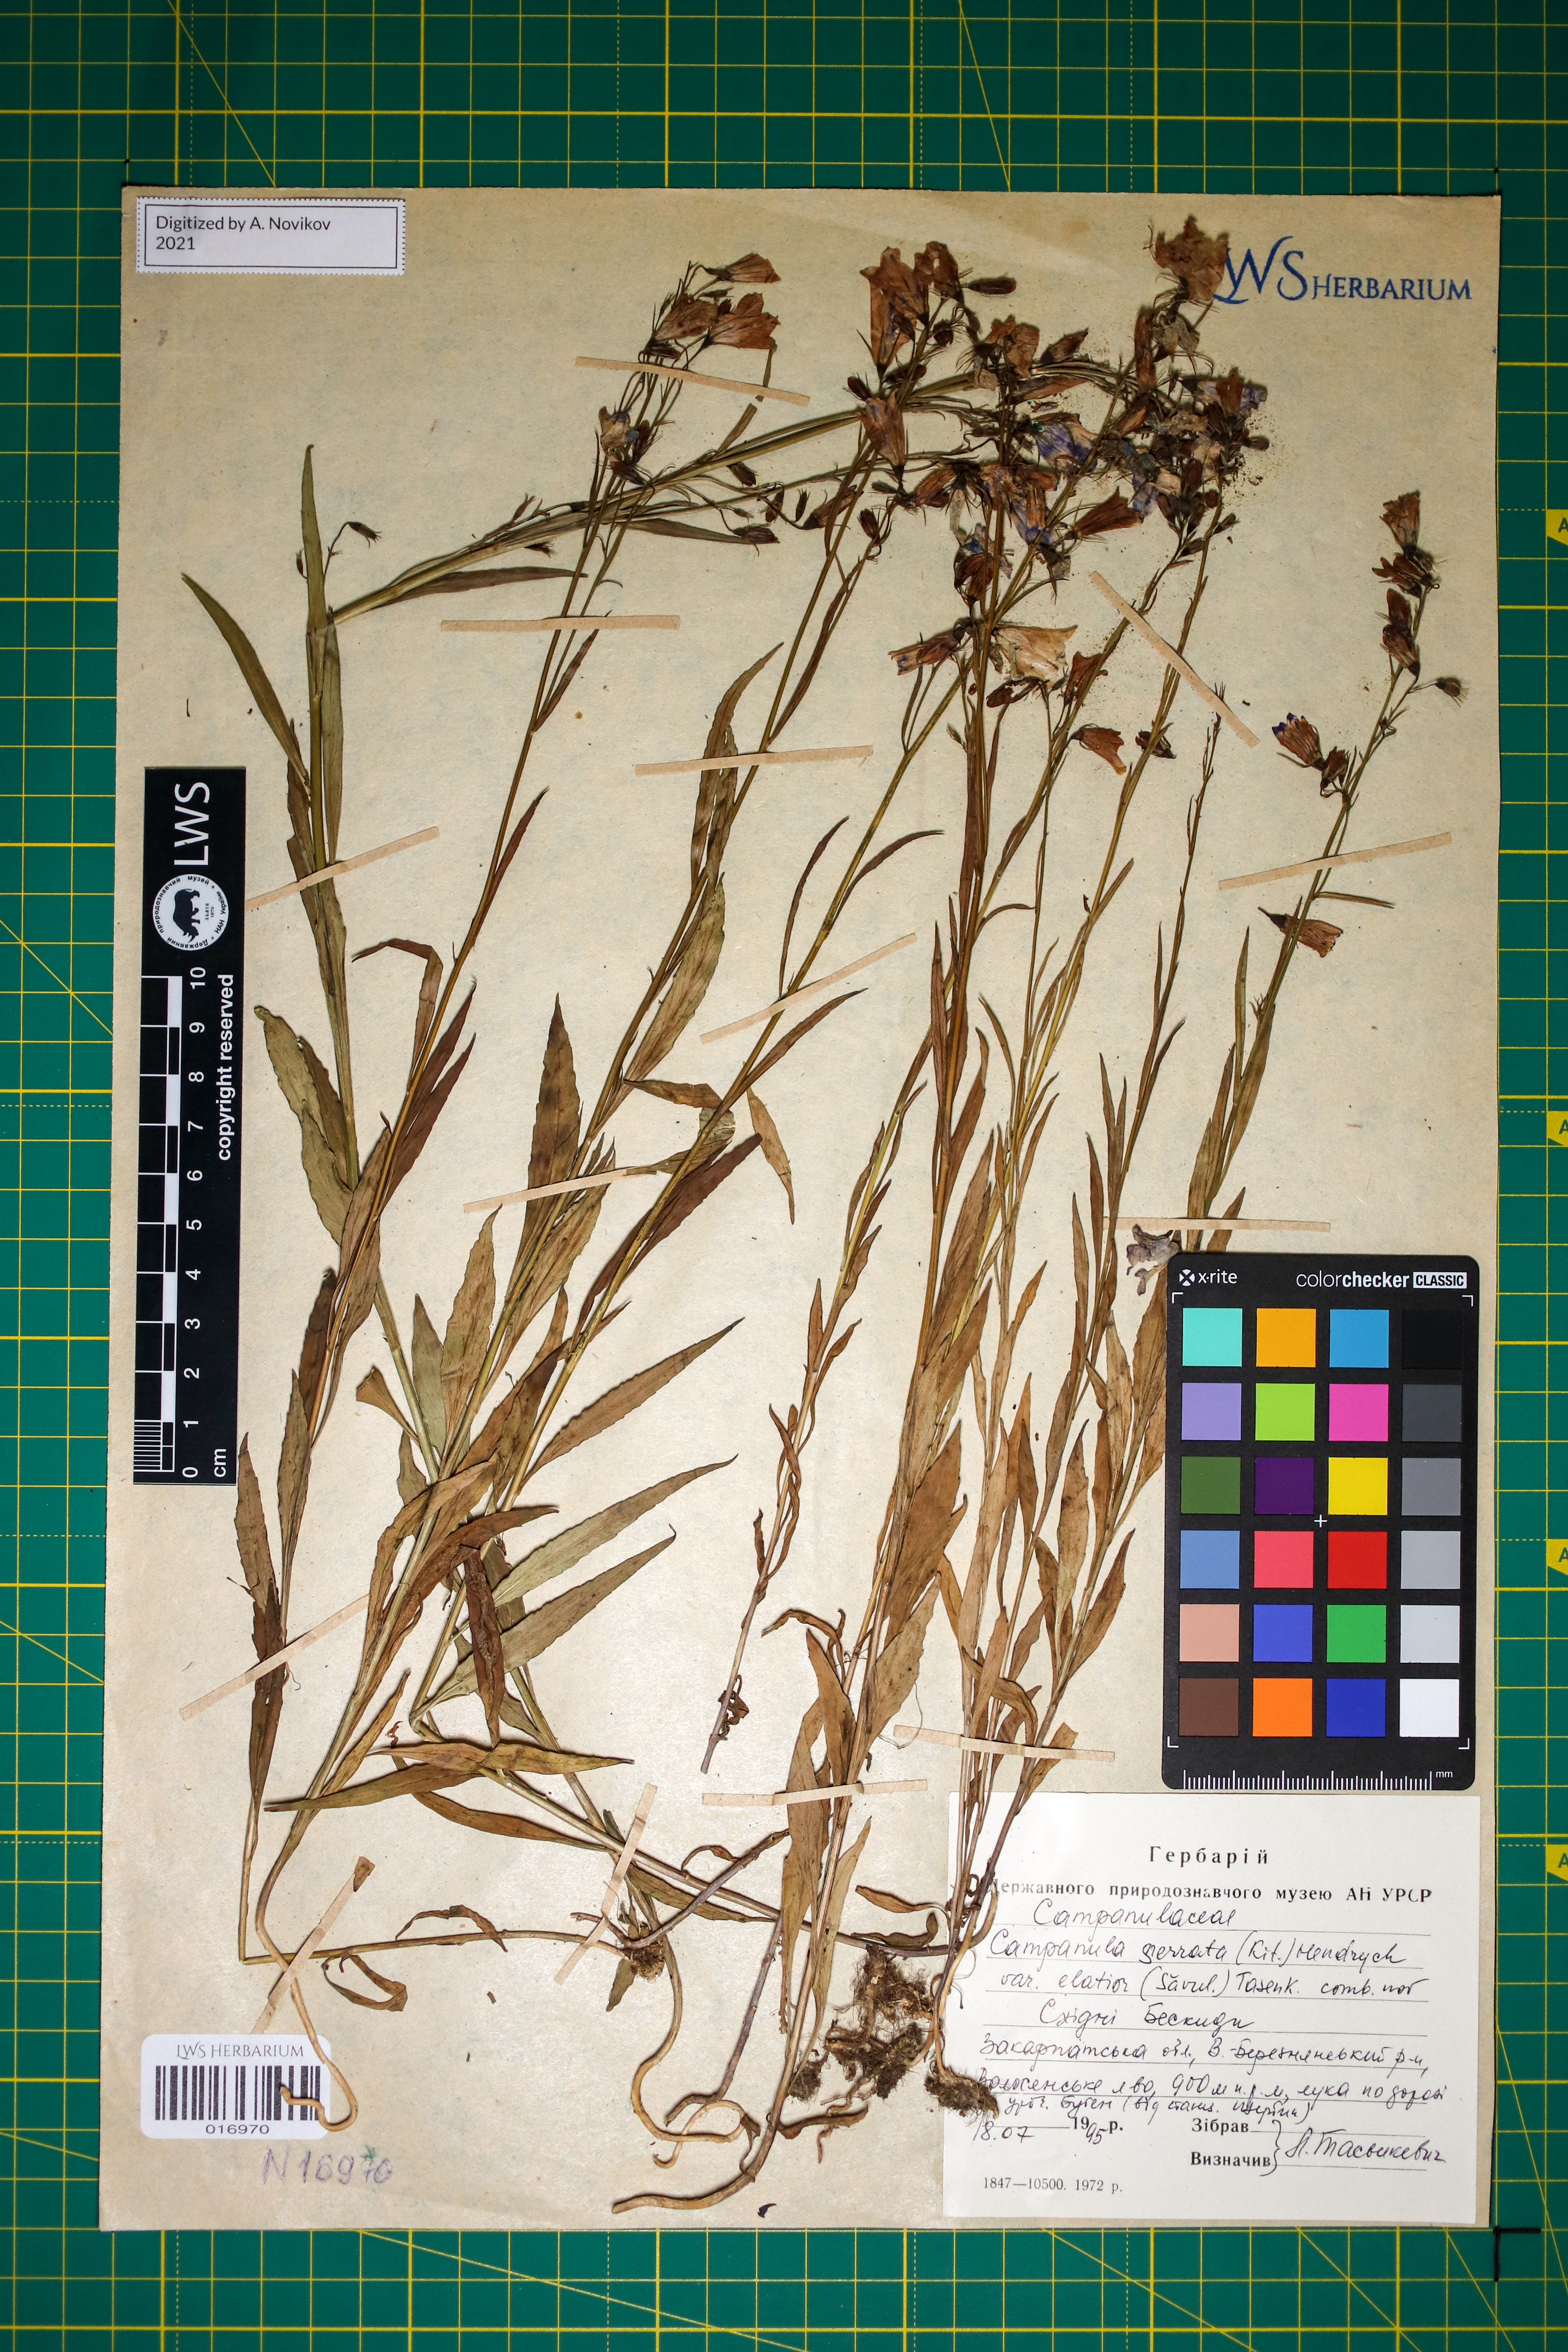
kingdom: Plantae
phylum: Tracheophyta
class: Magnoliopsida
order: Asterales
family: Campanulaceae
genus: Campanula
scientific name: Campanula serrata
